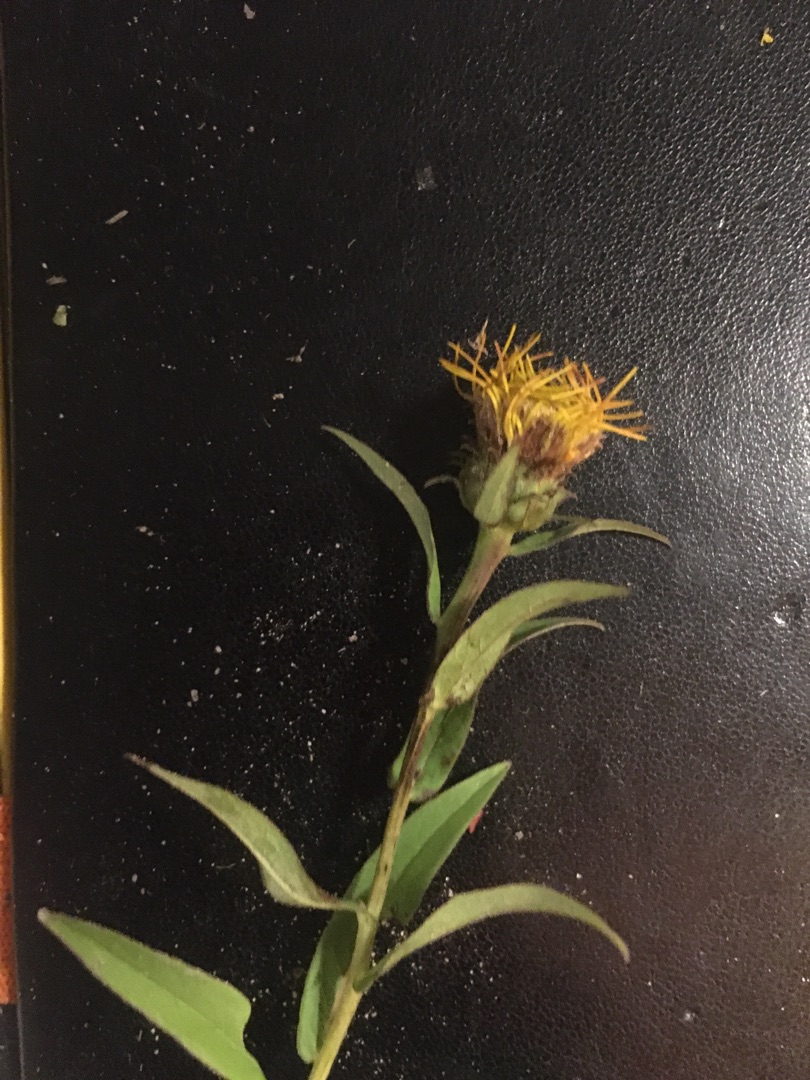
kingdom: Plantae
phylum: Tracheophyta
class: Magnoliopsida
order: Asterales
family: Asteraceae
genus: Pentanema
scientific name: Pentanema salicinum
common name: Pile-alant
